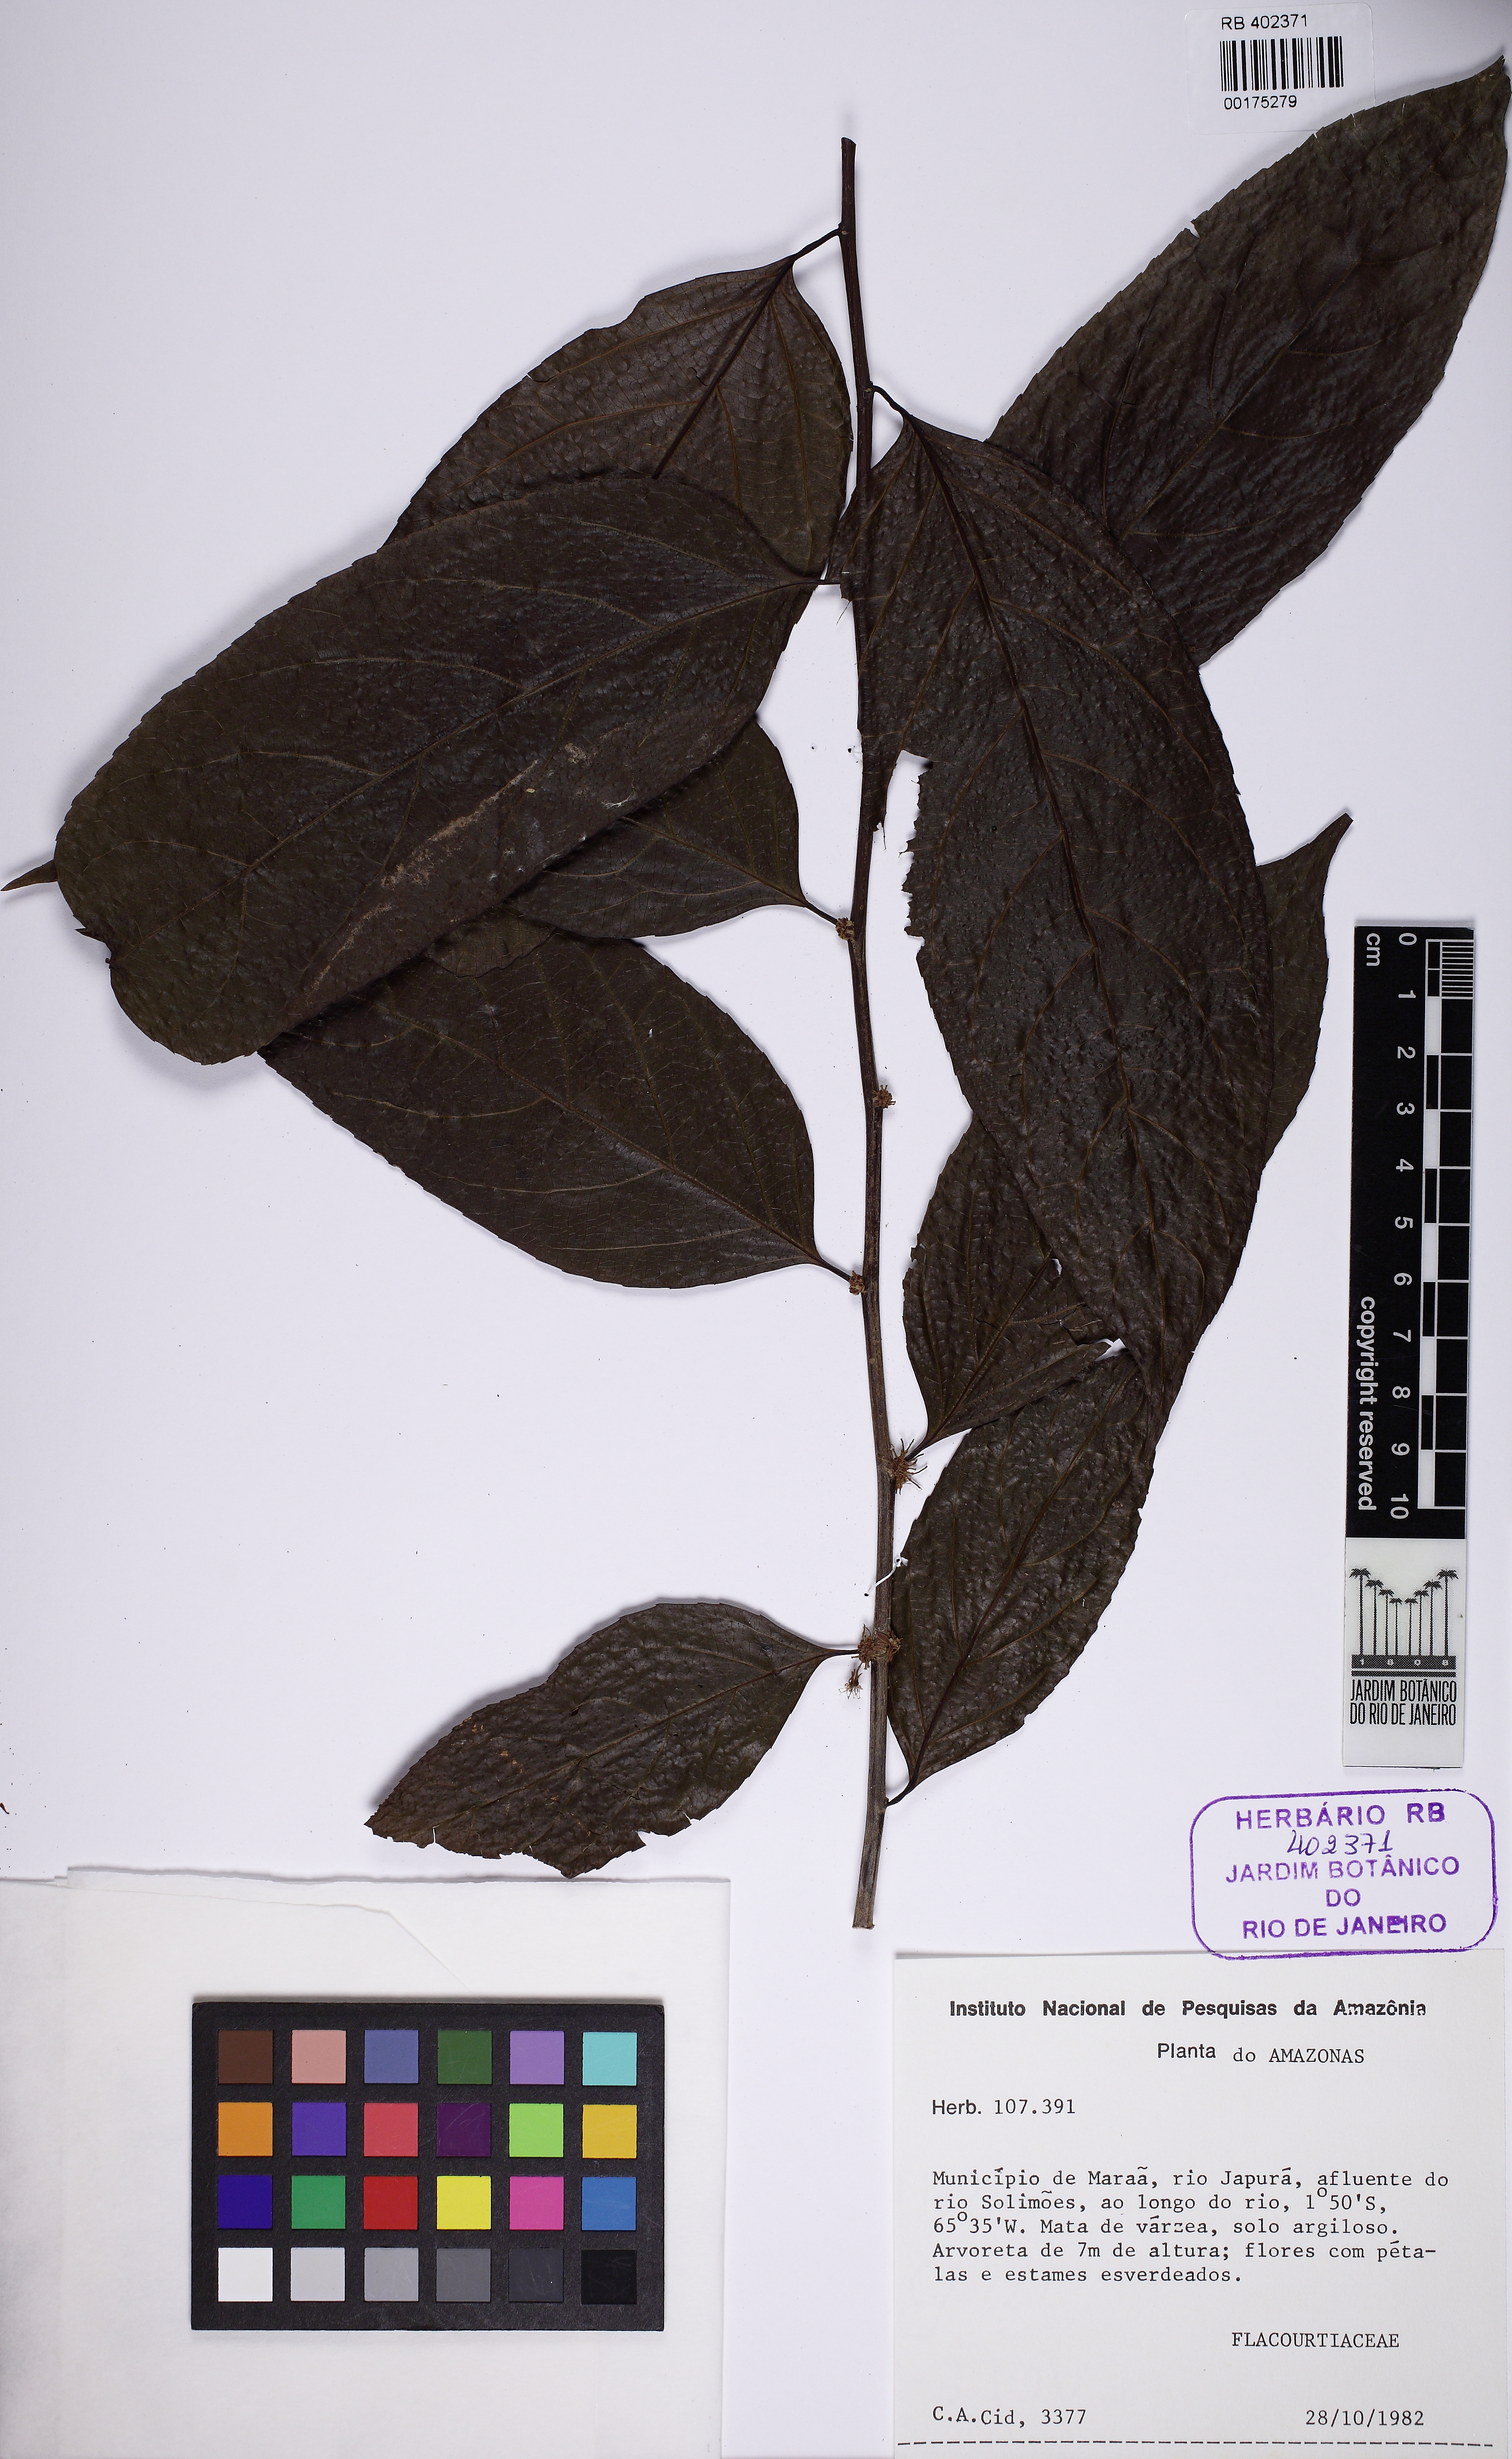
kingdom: Plantae
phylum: Tracheophyta
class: Magnoliopsida
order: Malpighiales
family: Flacourtiaceae
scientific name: Flacourtiaceae
